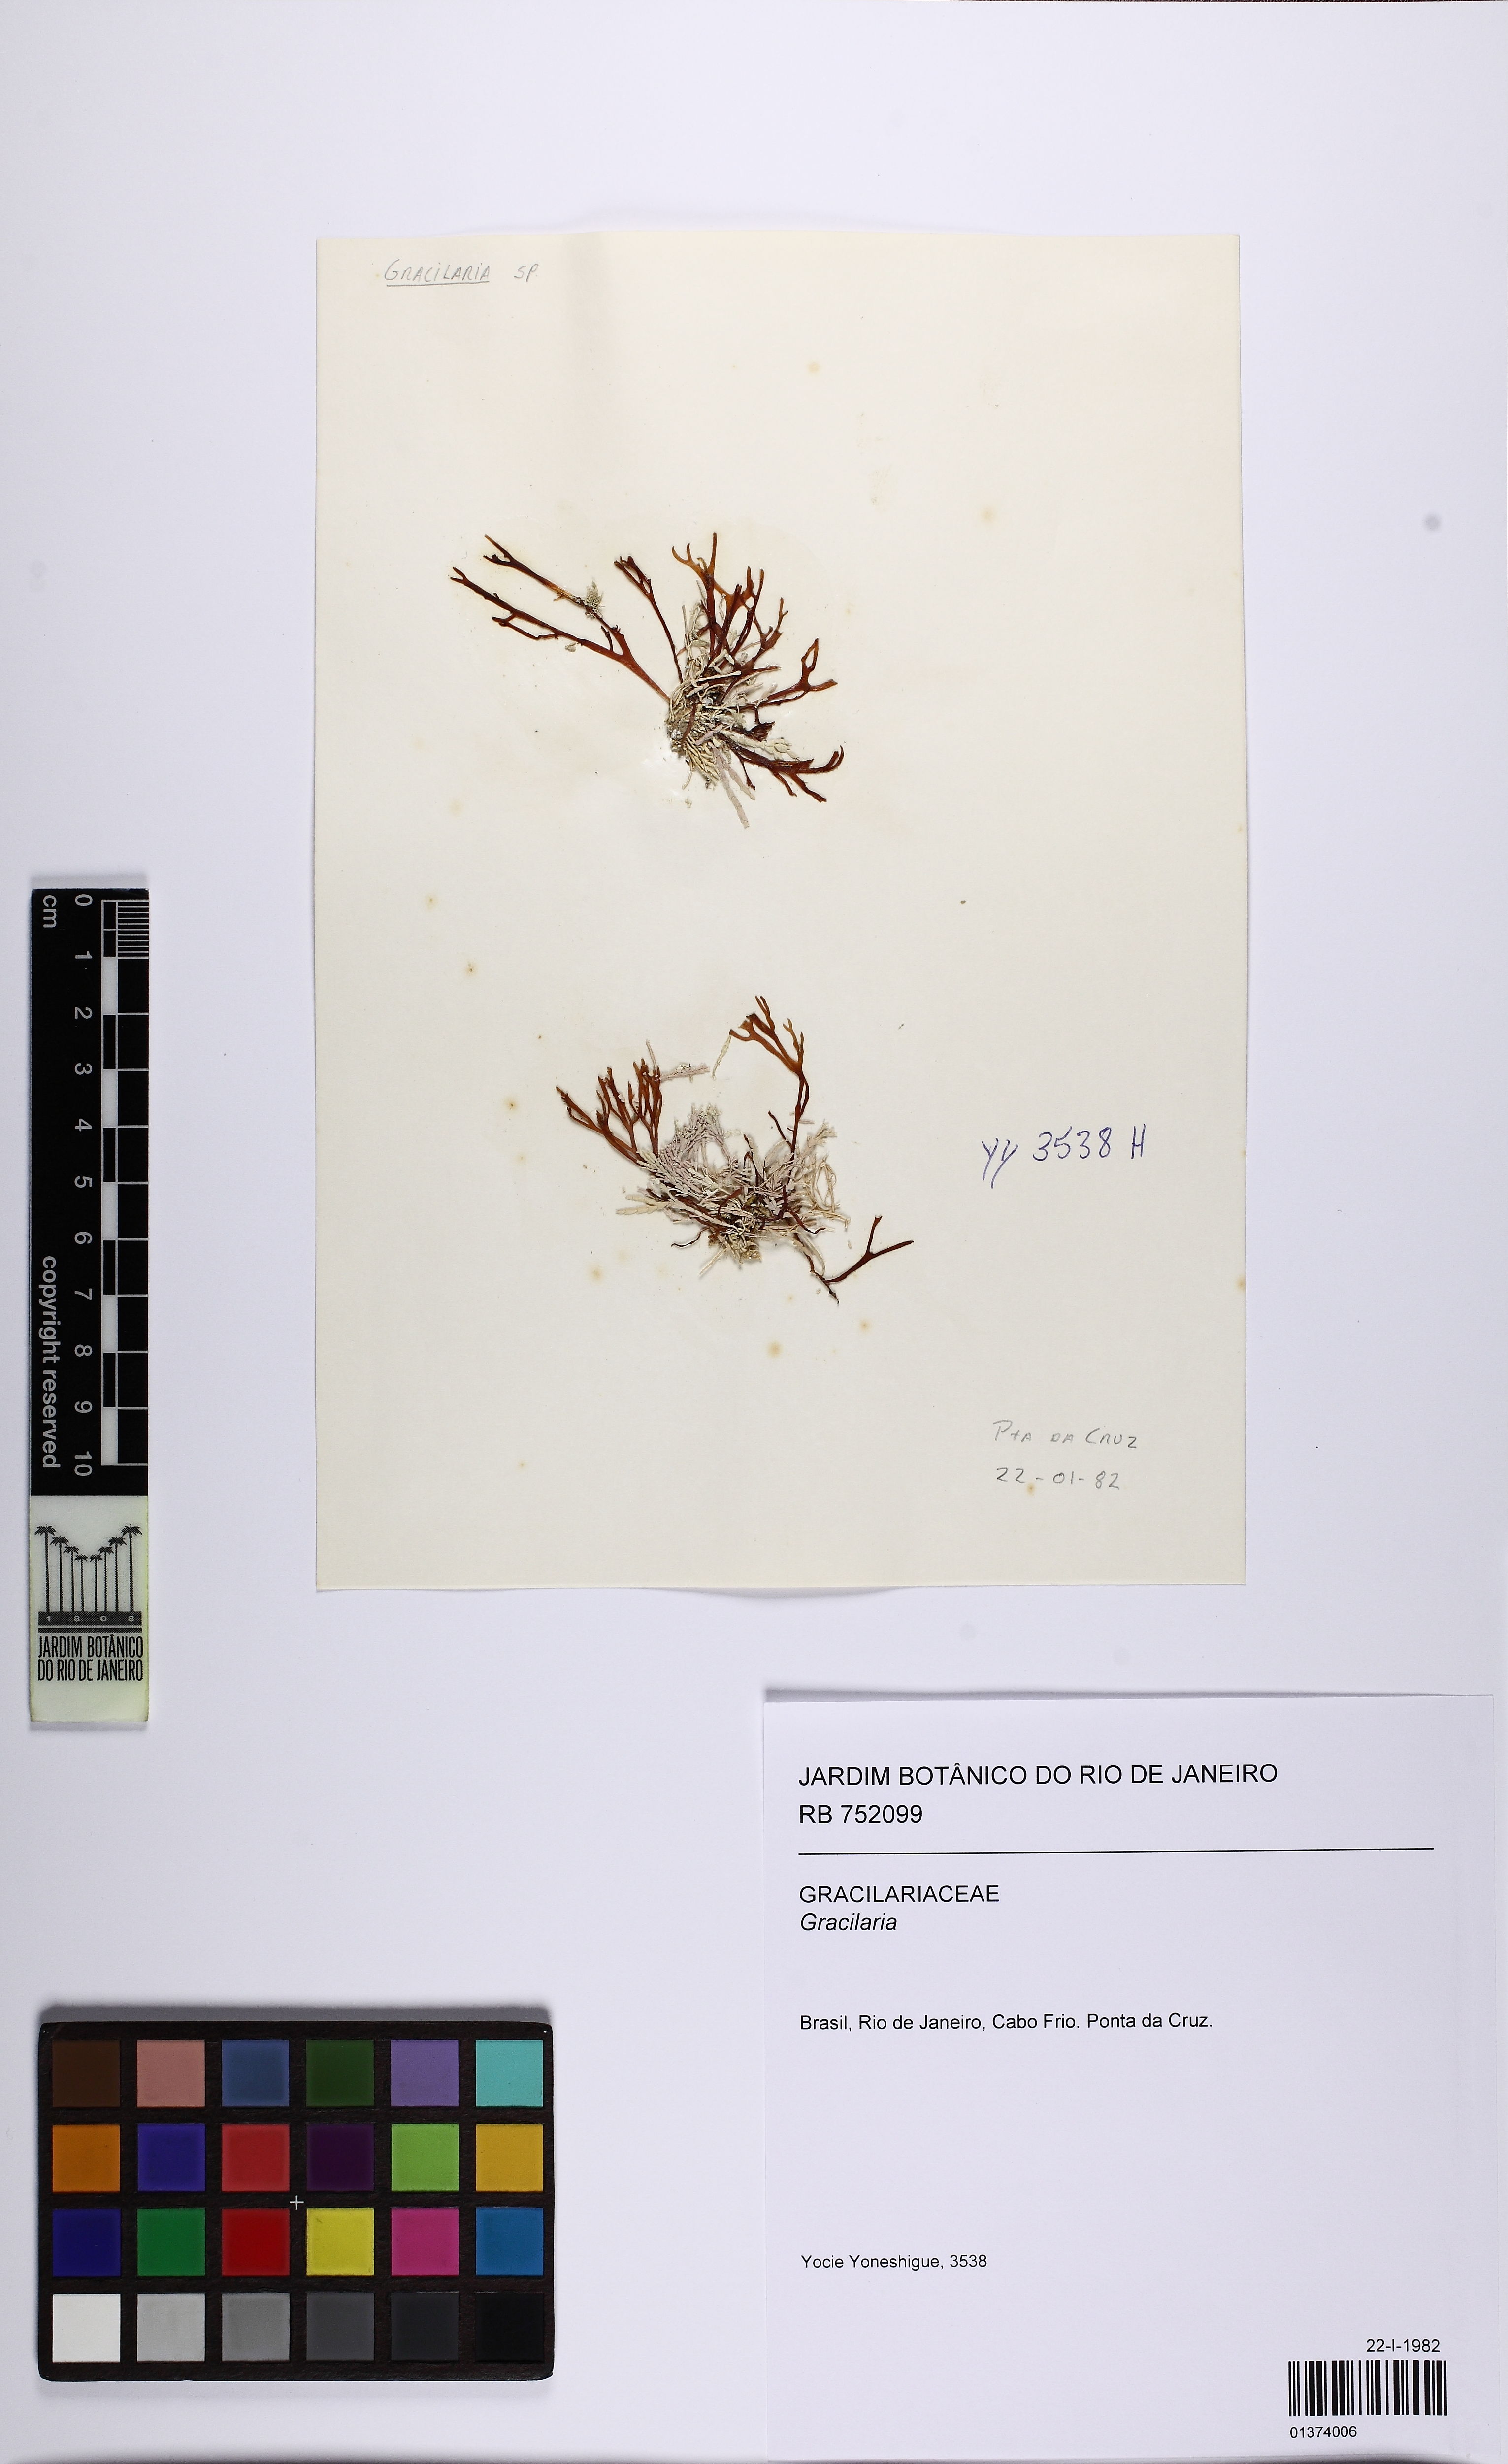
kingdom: Plantae
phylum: Rhodophyta
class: Florideophyceae
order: Gracilariales
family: Gracilariaceae
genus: Gracilaria
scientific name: Gracilaria
